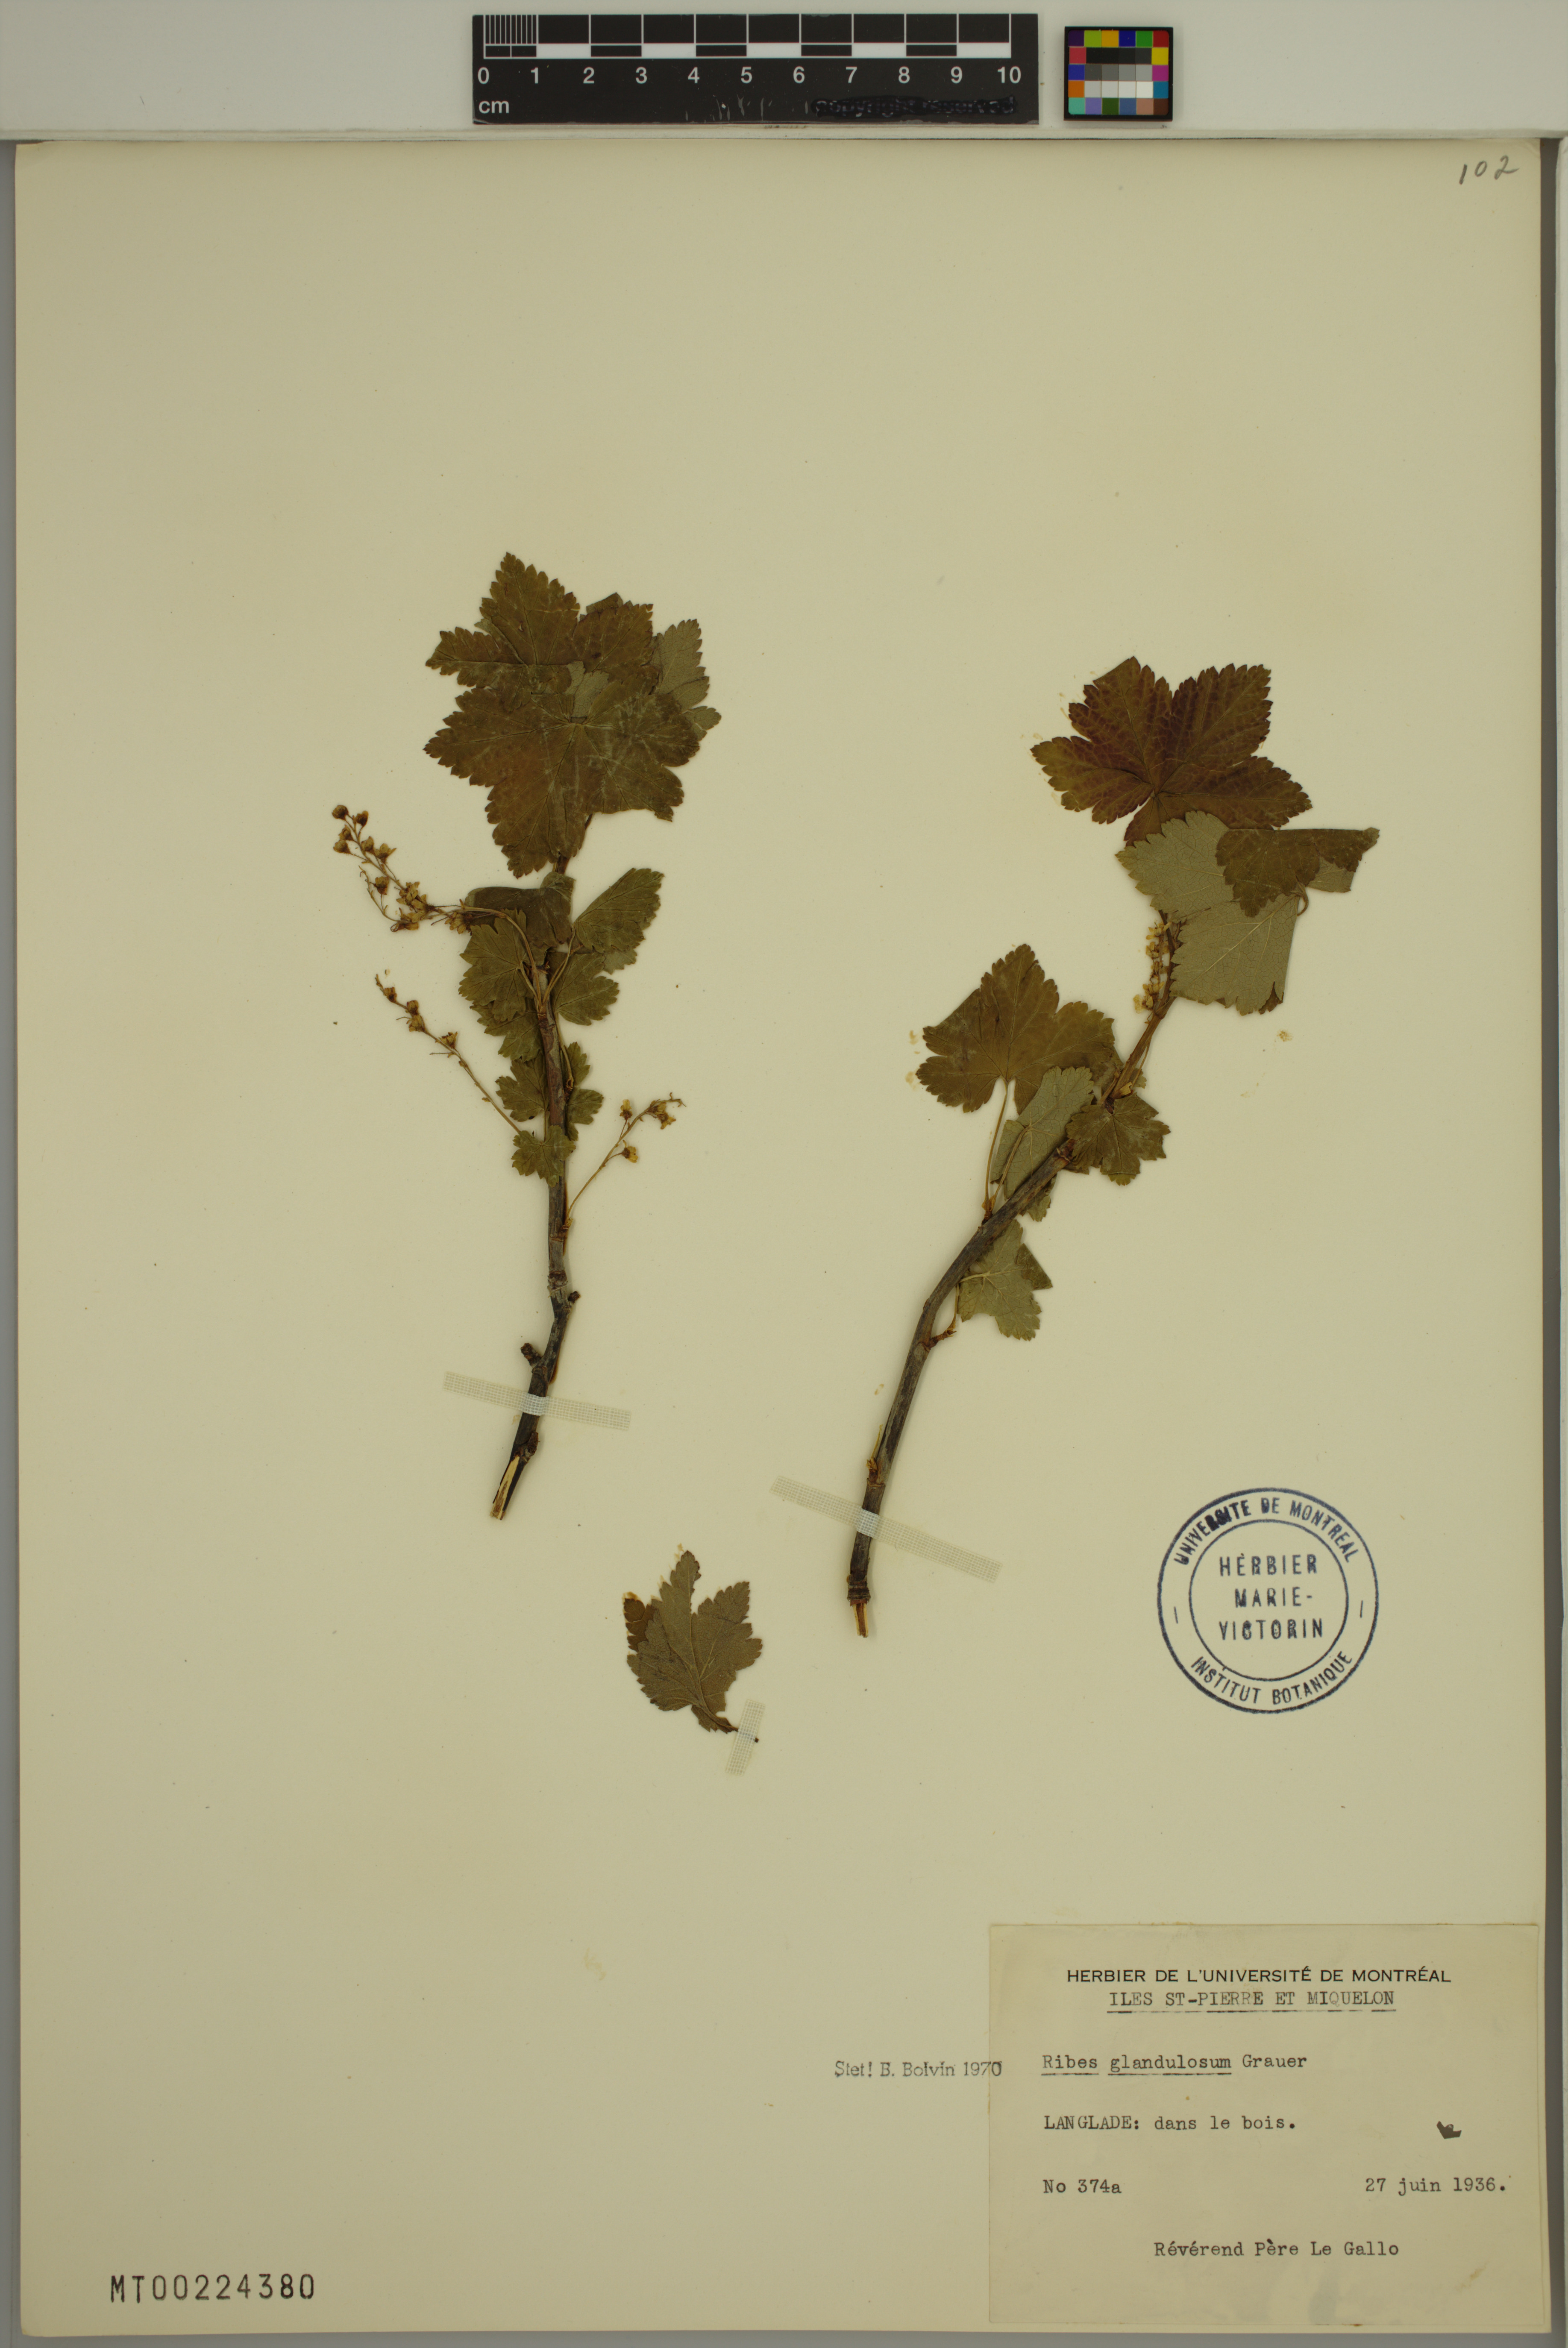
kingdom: Plantae
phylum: Tracheophyta
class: Magnoliopsida
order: Saxifragales
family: Grossulariaceae
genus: Ribes
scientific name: Ribes glandulosum
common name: Skunk currant
